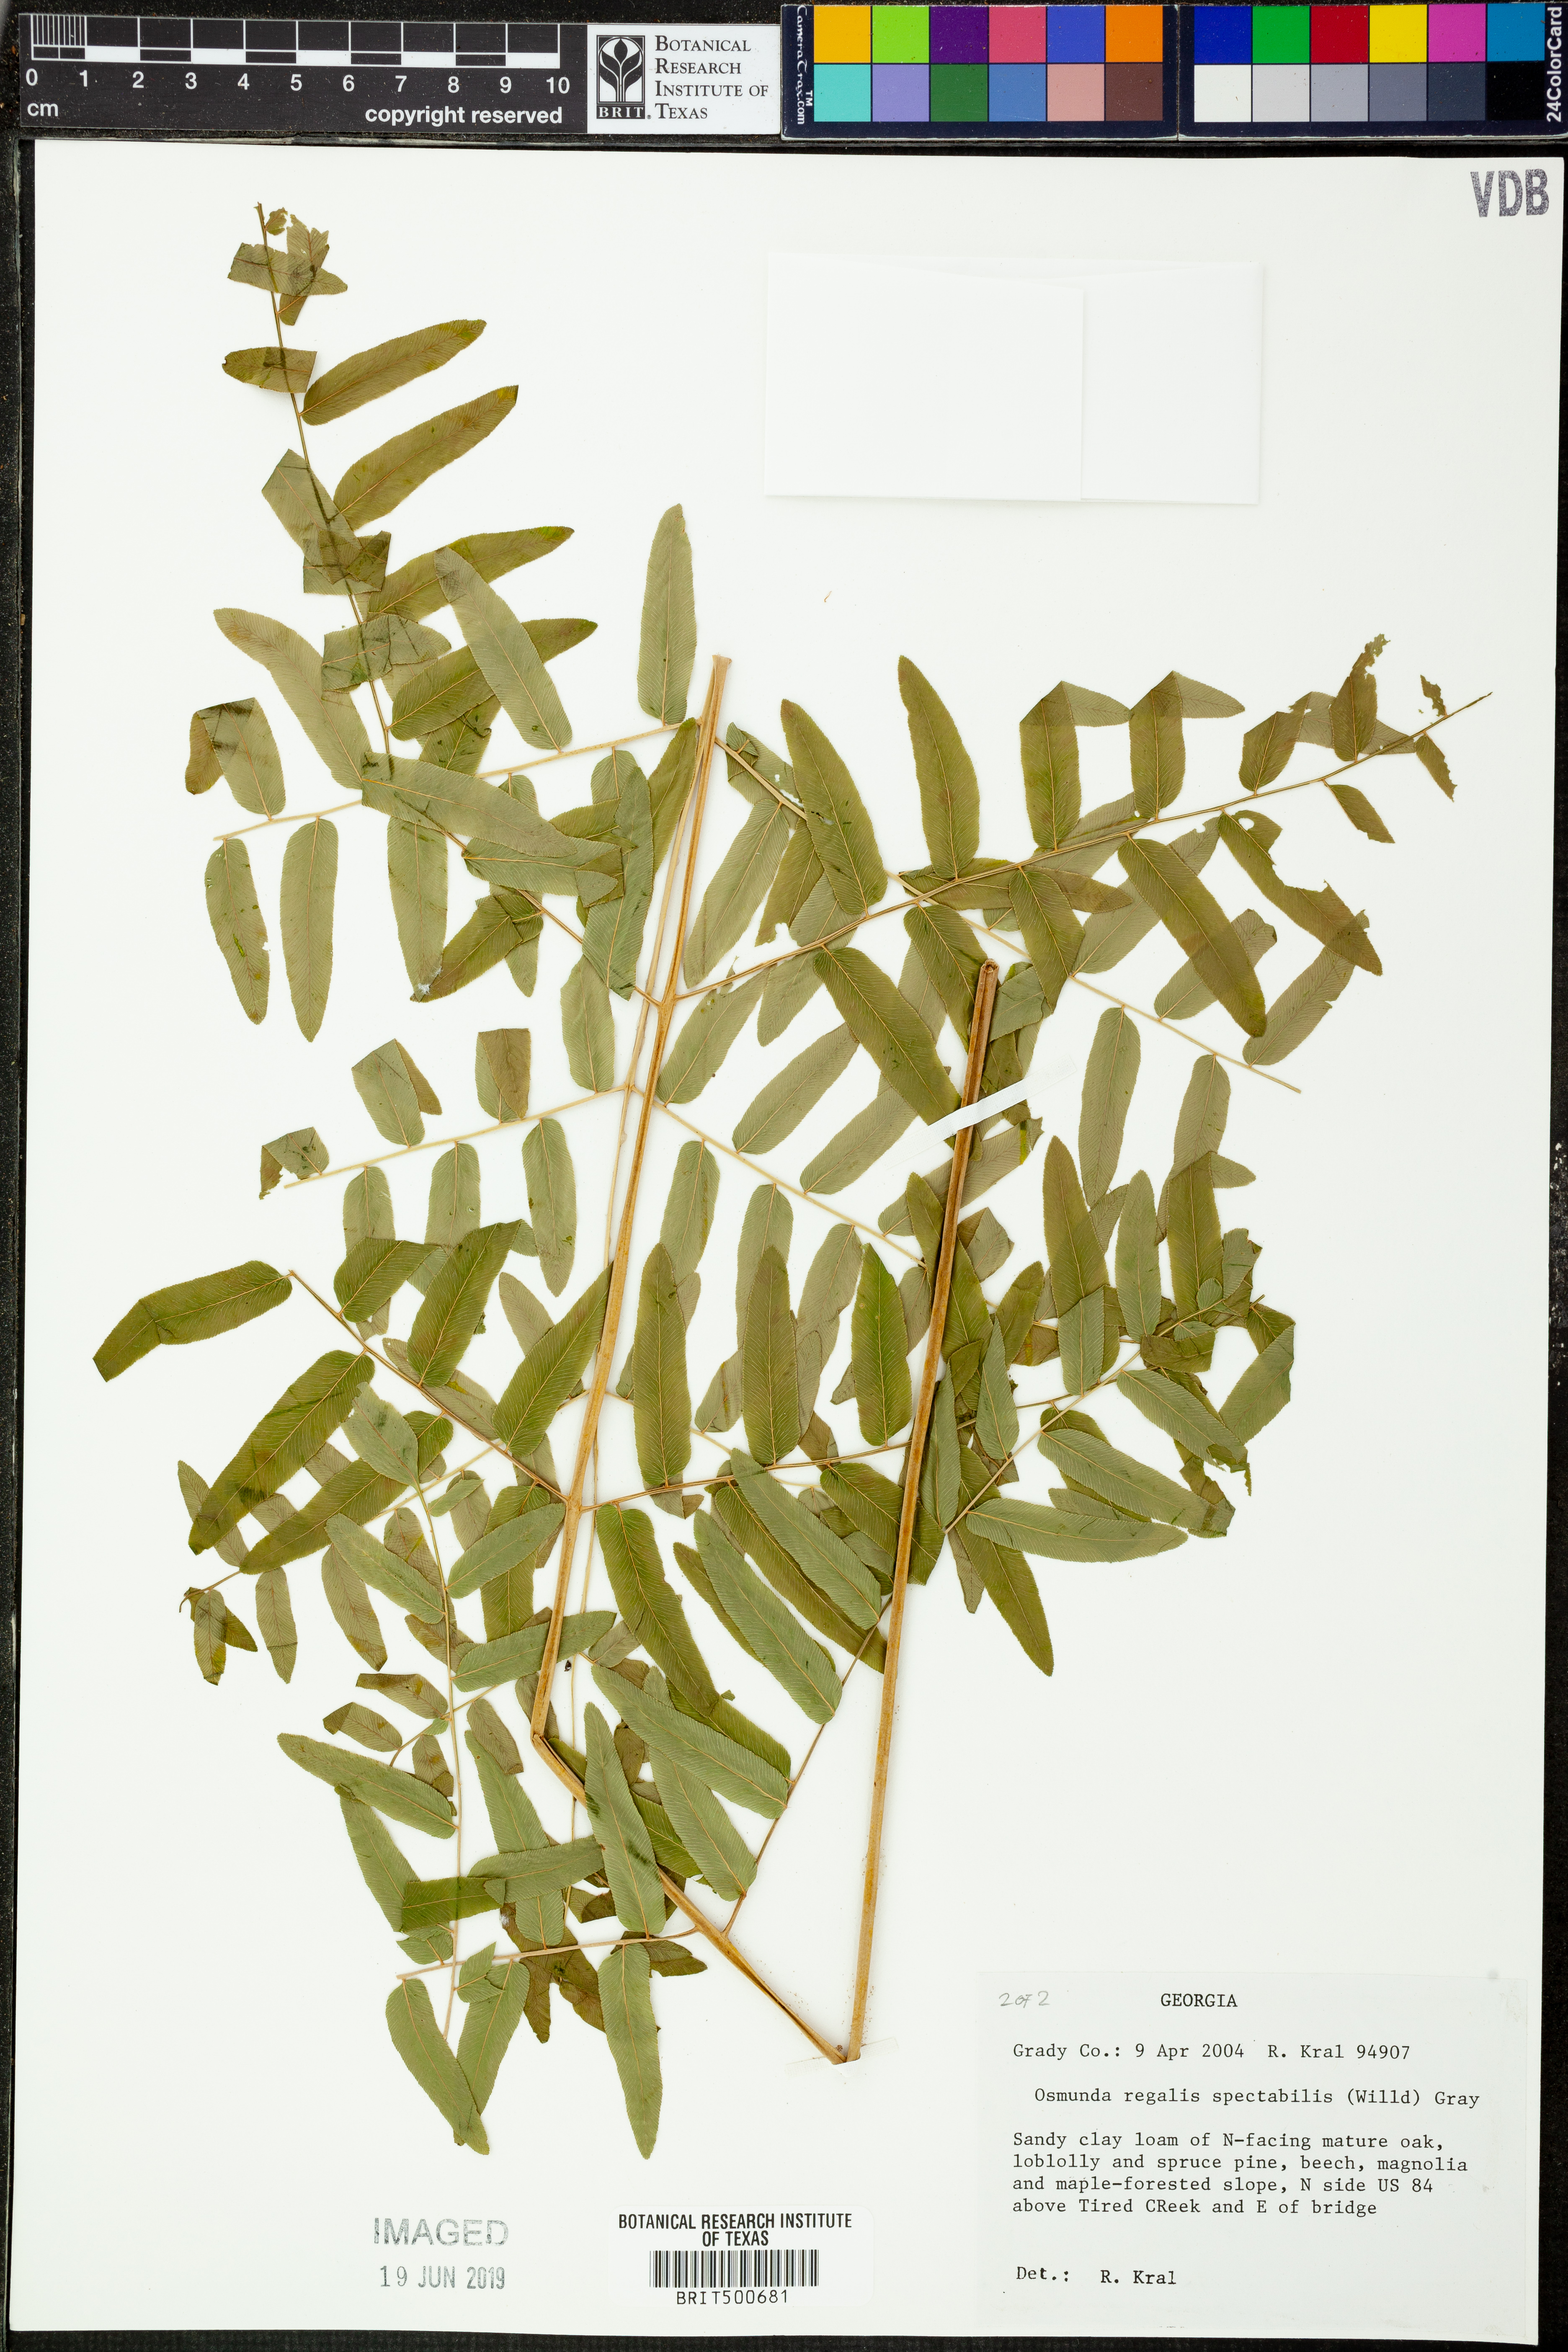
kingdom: Plantae
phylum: Tracheophyta
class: Polypodiopsida
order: Osmundales
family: Osmundaceae
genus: Osmunda
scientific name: Osmunda spectabilis
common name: American royal fern
